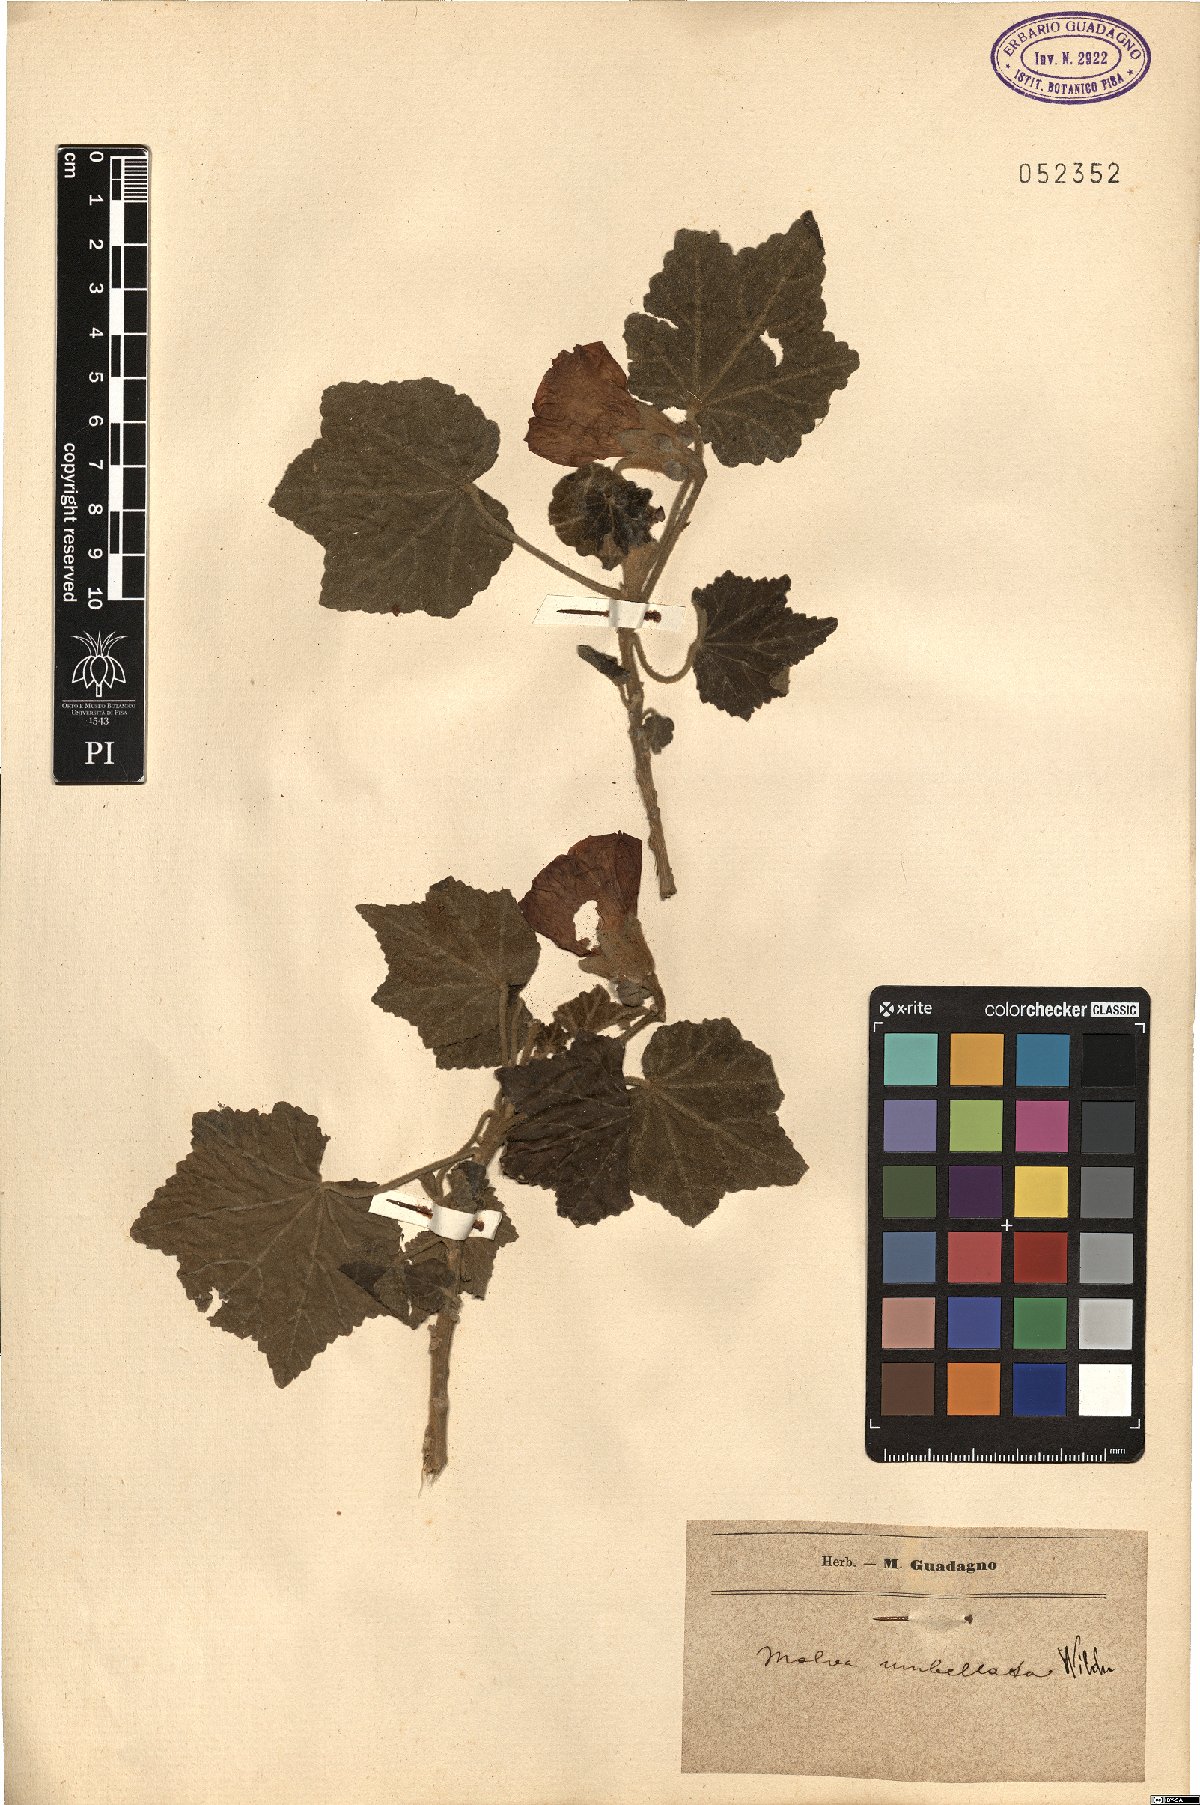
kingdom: Plantae
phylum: Tracheophyta
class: Magnoliopsida
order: Malvales
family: Malvaceae
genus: Phymosia
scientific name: Phymosia umbellata
